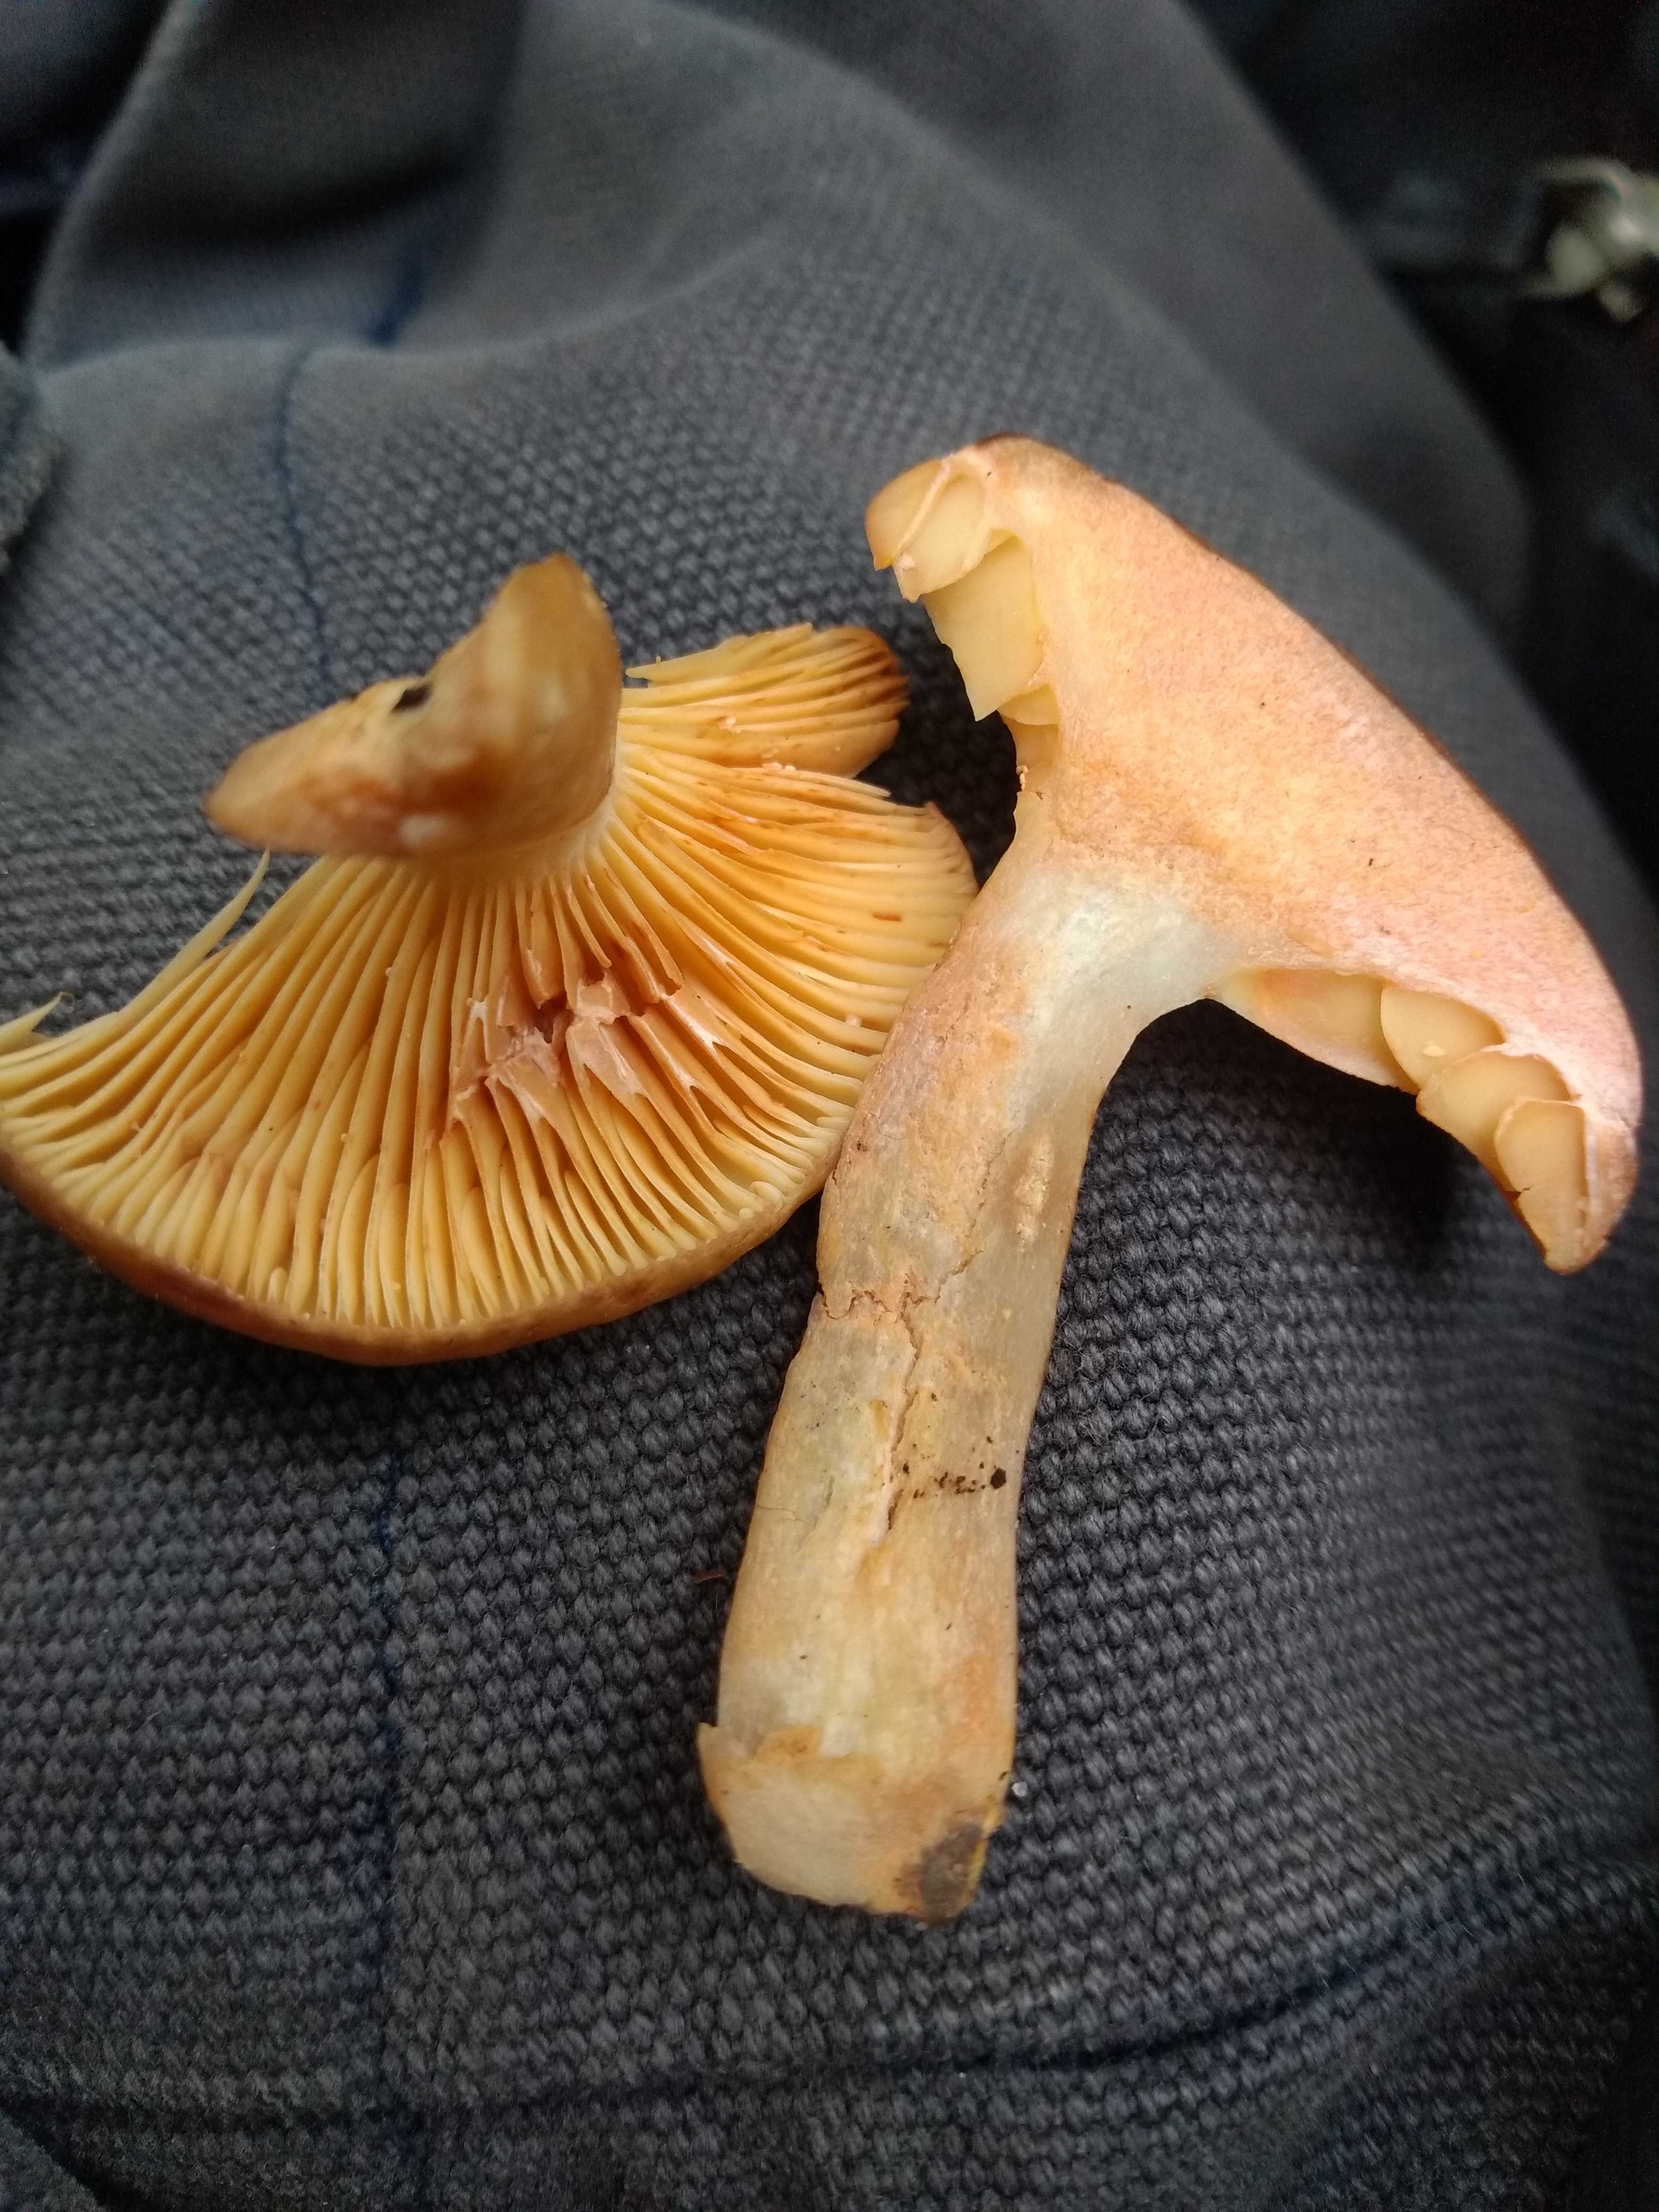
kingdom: Fungi
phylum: Basidiomycota
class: Agaricomycetes
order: Russulales
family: Russulaceae
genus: Lactarius
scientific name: Lactarius
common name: mælkehat
